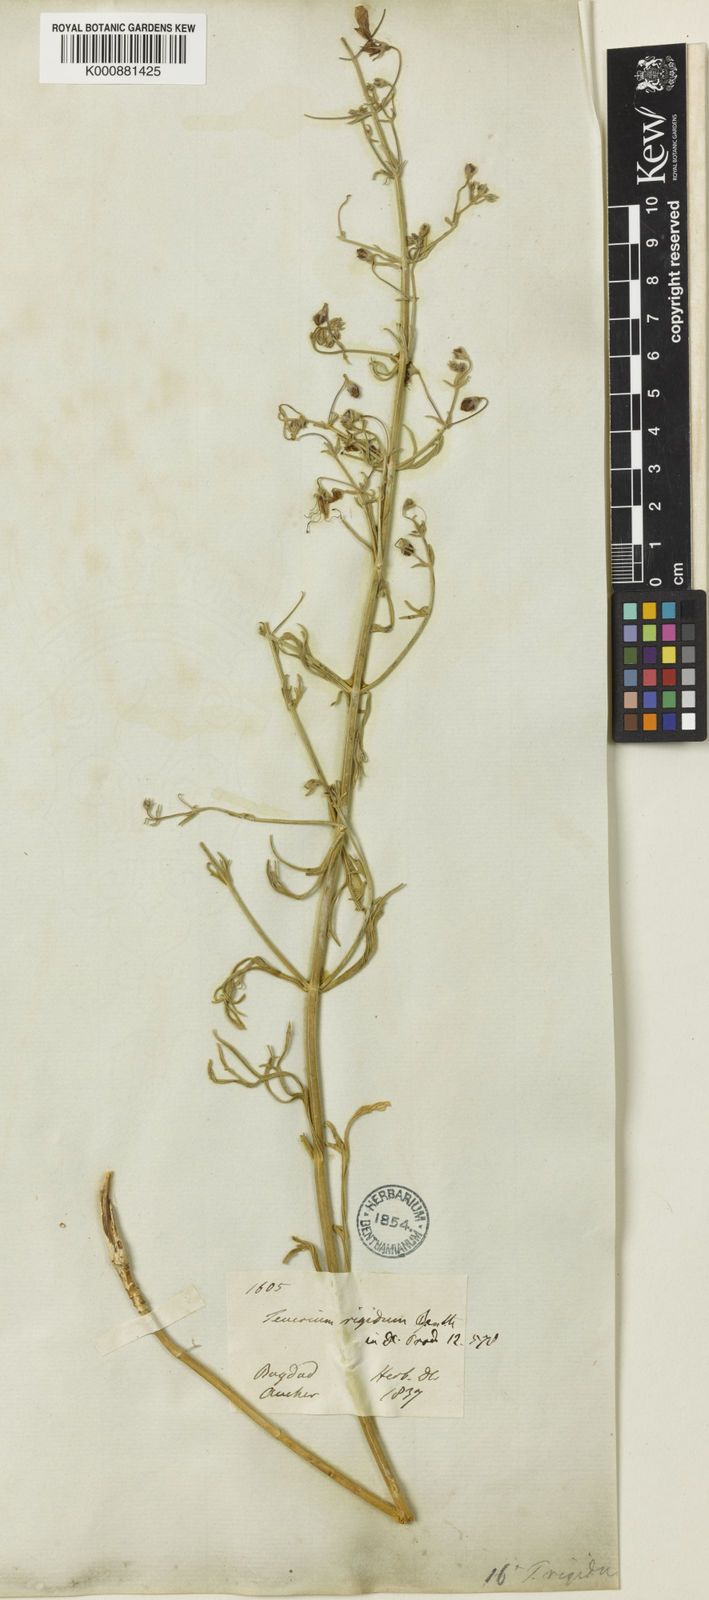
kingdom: Plantae
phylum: Tracheophyta
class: Magnoliopsida
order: Lamiales
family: Lamiaceae
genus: Teucrium
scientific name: Teucrium rigidum
